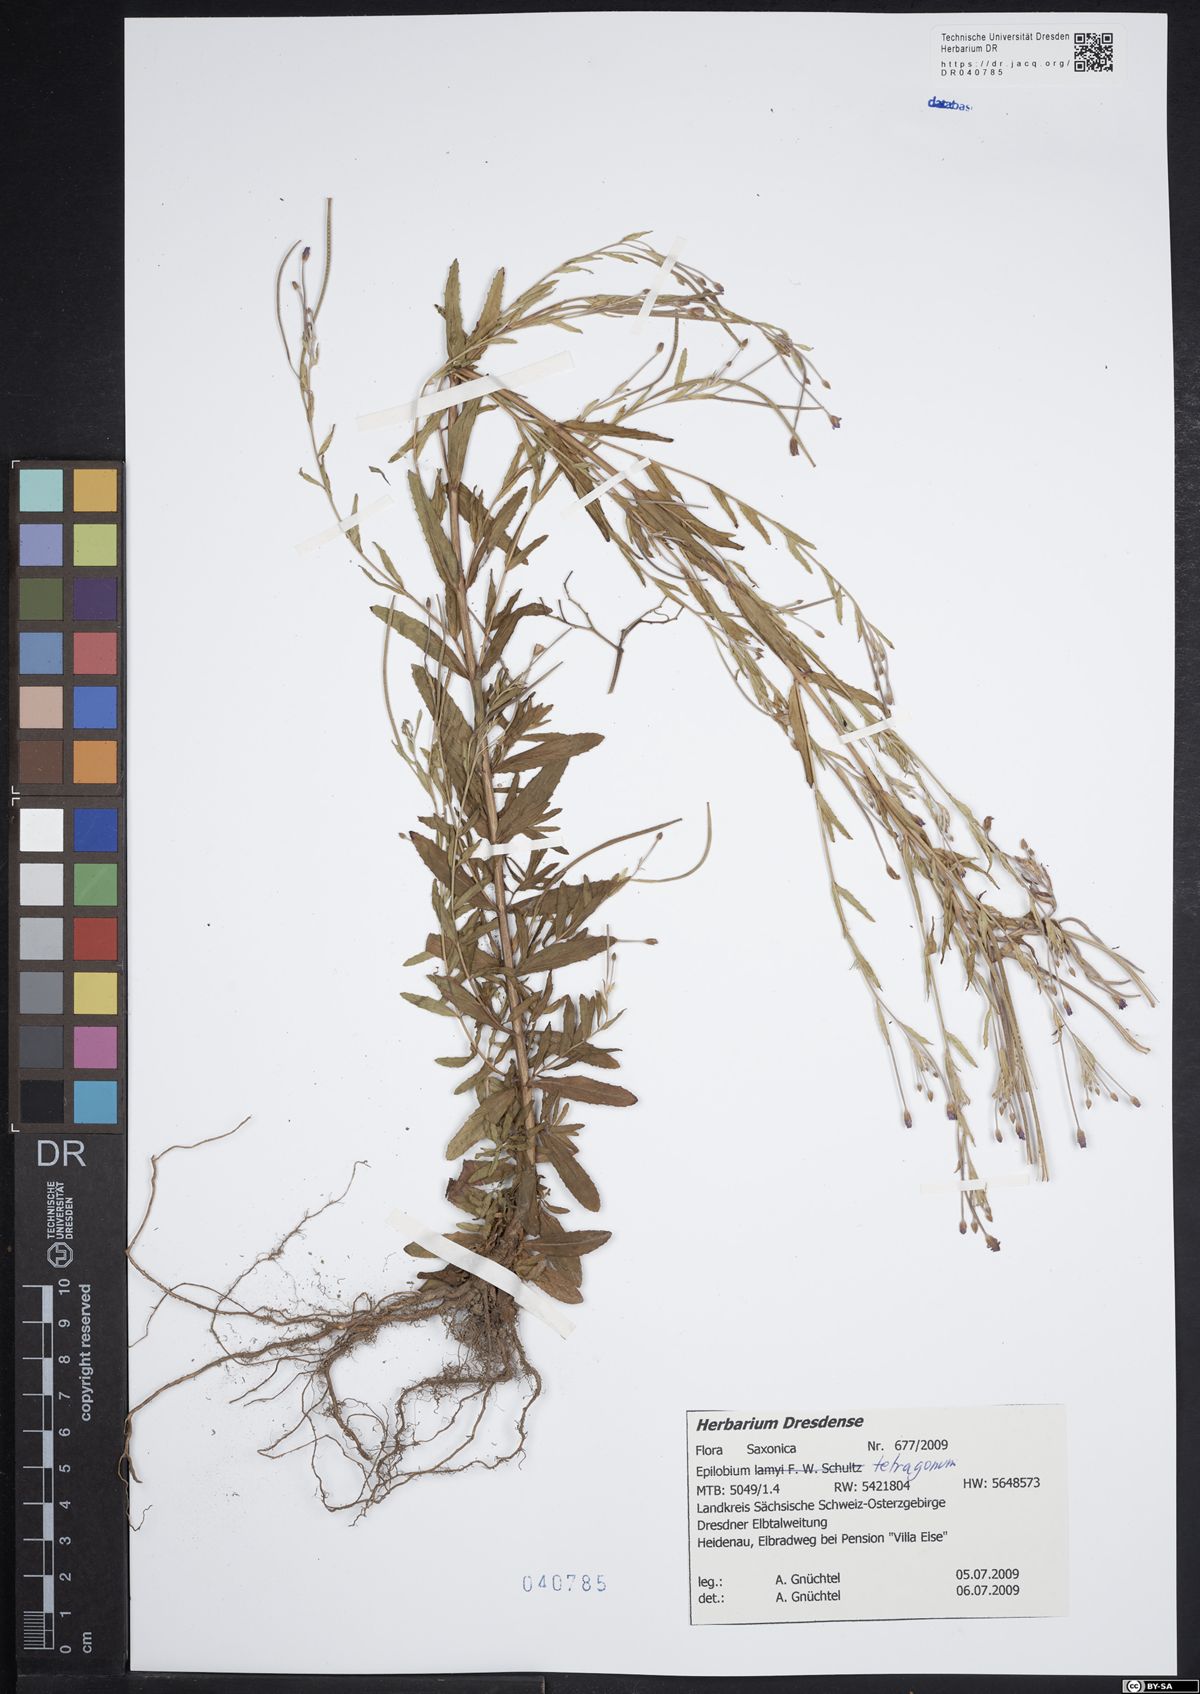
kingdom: Plantae
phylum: Tracheophyta
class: Magnoliopsida
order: Myrtales
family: Onagraceae
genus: Epilobium
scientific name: Epilobium tetragonum
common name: Square-stemmed willowherb
